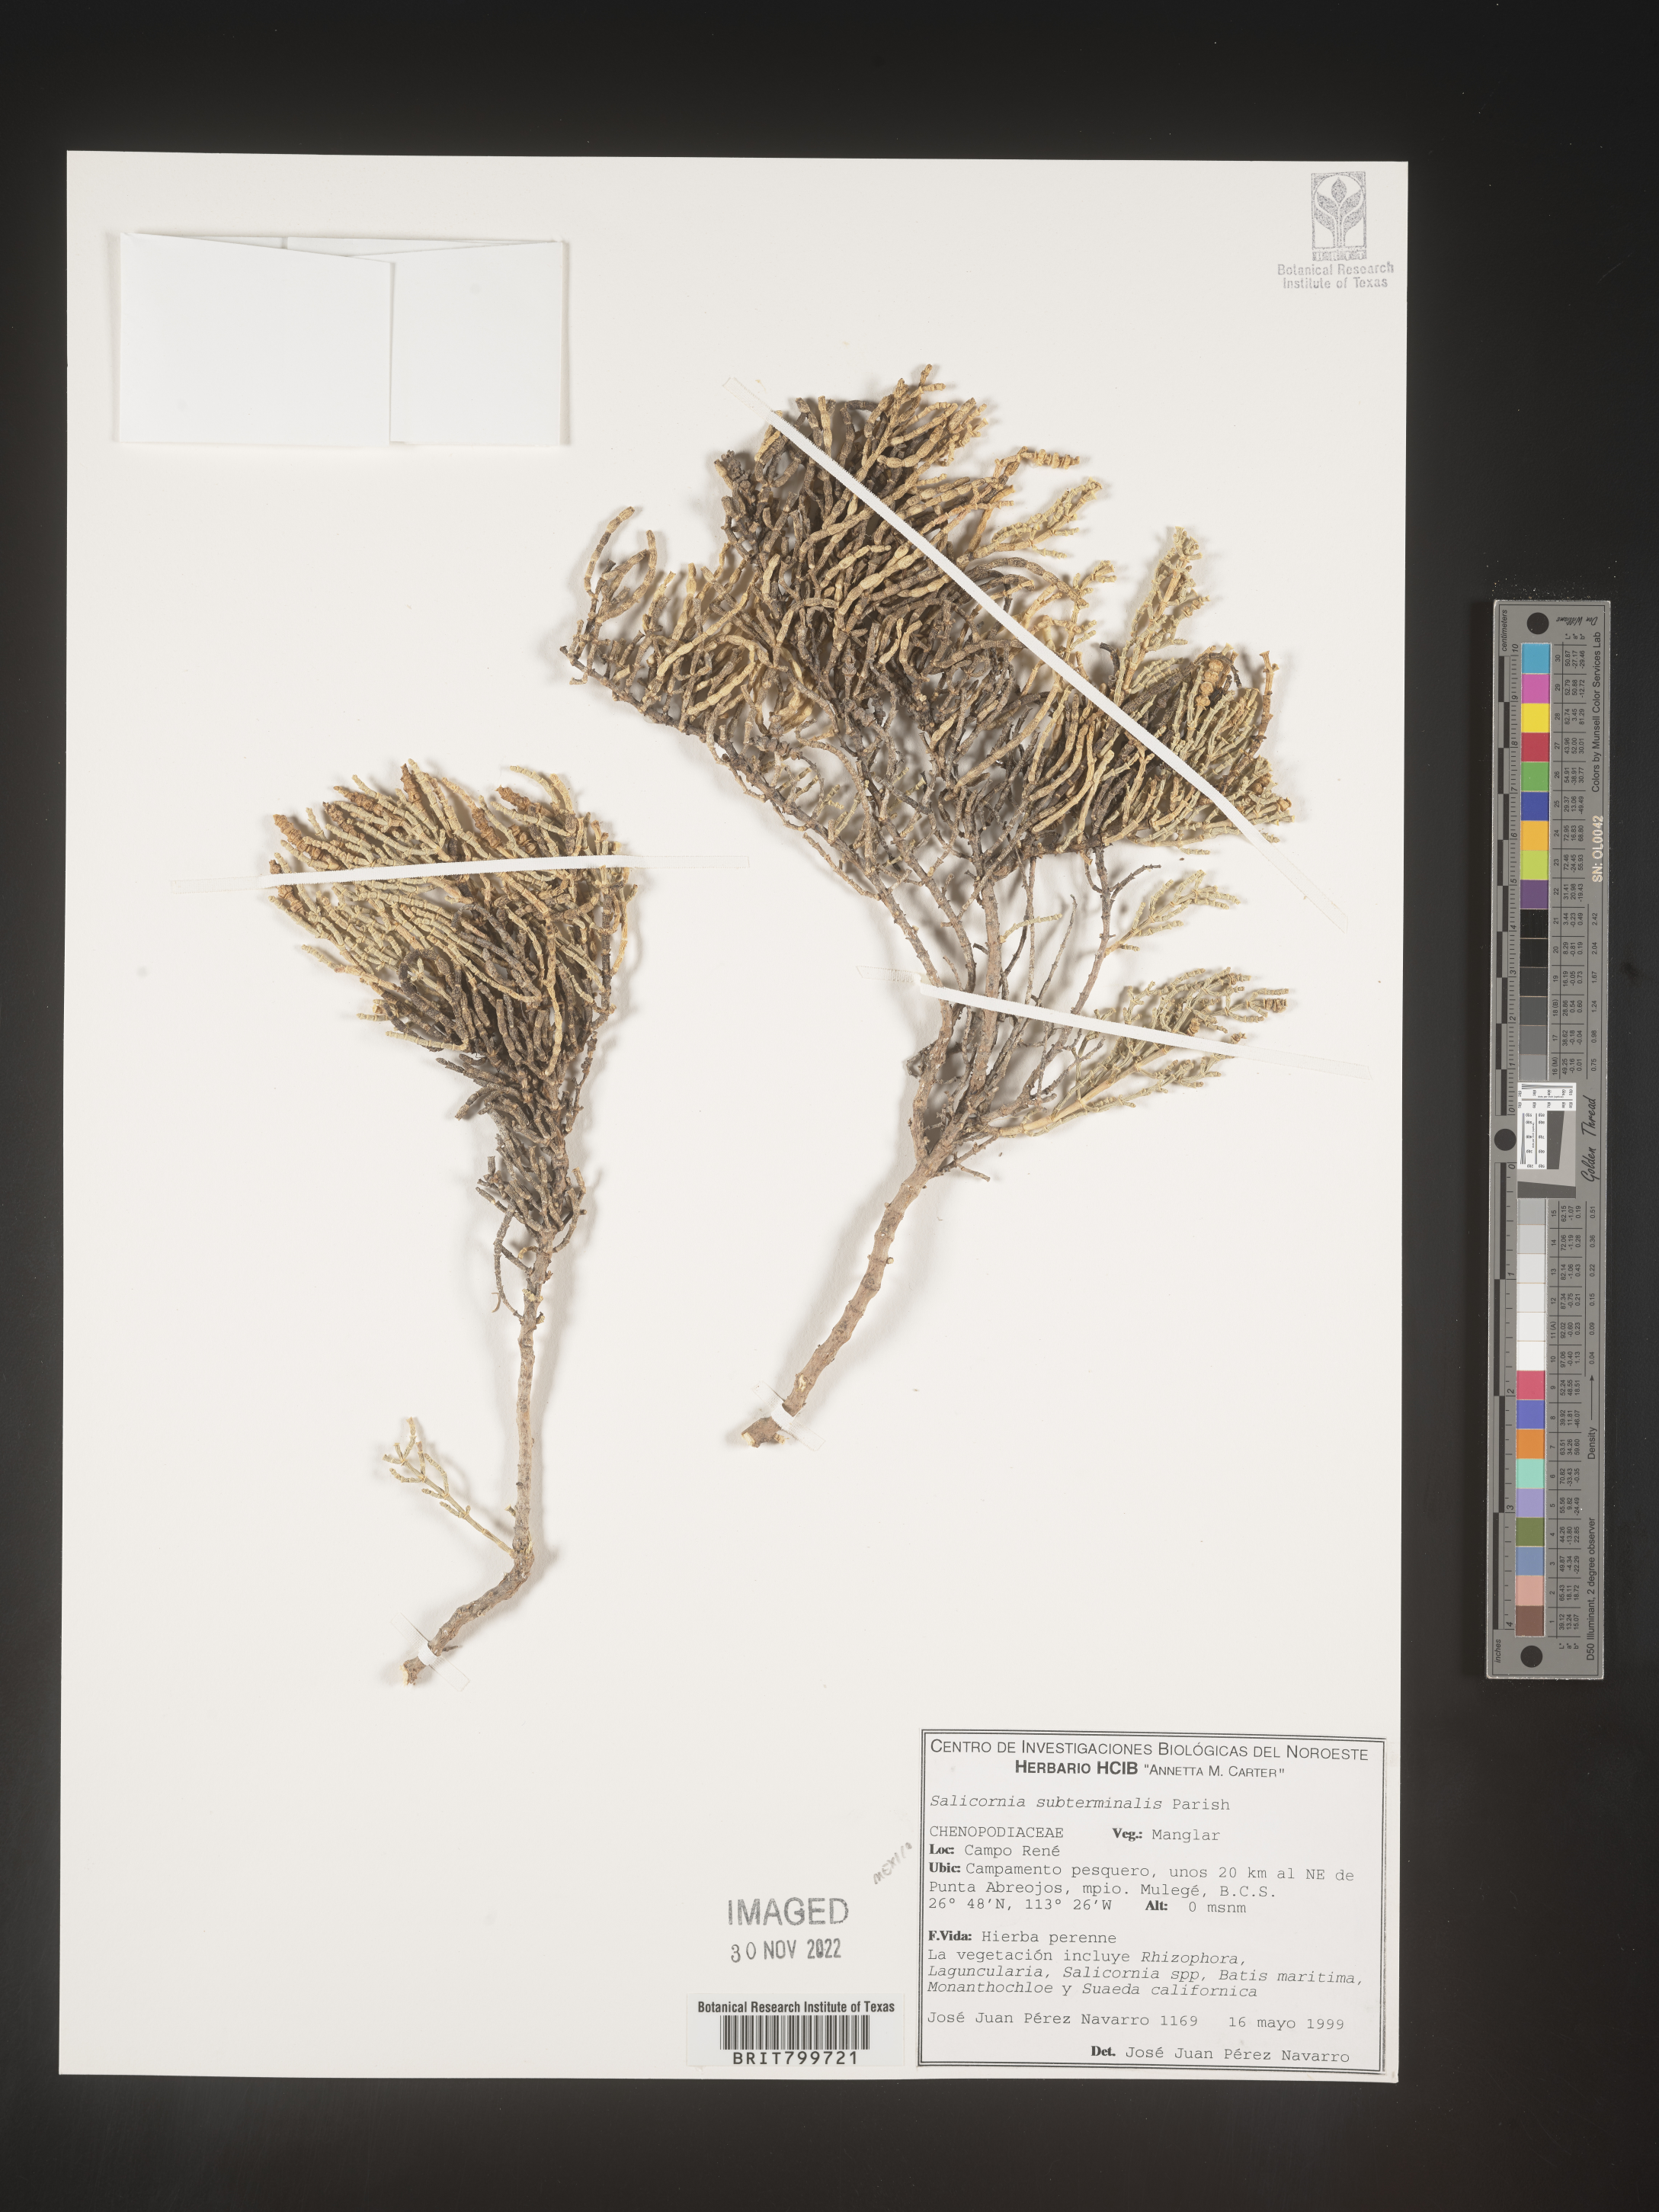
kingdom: Plantae
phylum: Tracheophyta
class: Magnoliopsida
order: Caryophyllales
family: Amaranthaceae
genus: Salicornia
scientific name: Salicornia
